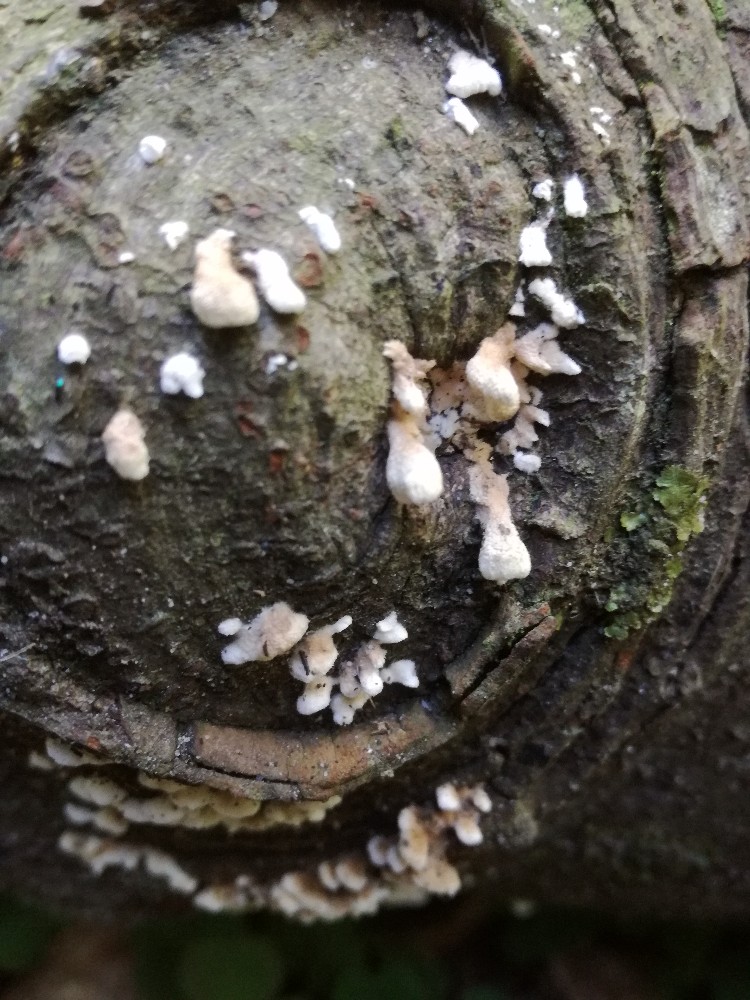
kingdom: Fungi
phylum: Basidiomycota
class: Agaricomycetes
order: Amylocorticiales
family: Amylocorticiaceae
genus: Plicaturopsis
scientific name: Plicaturopsis crispa
